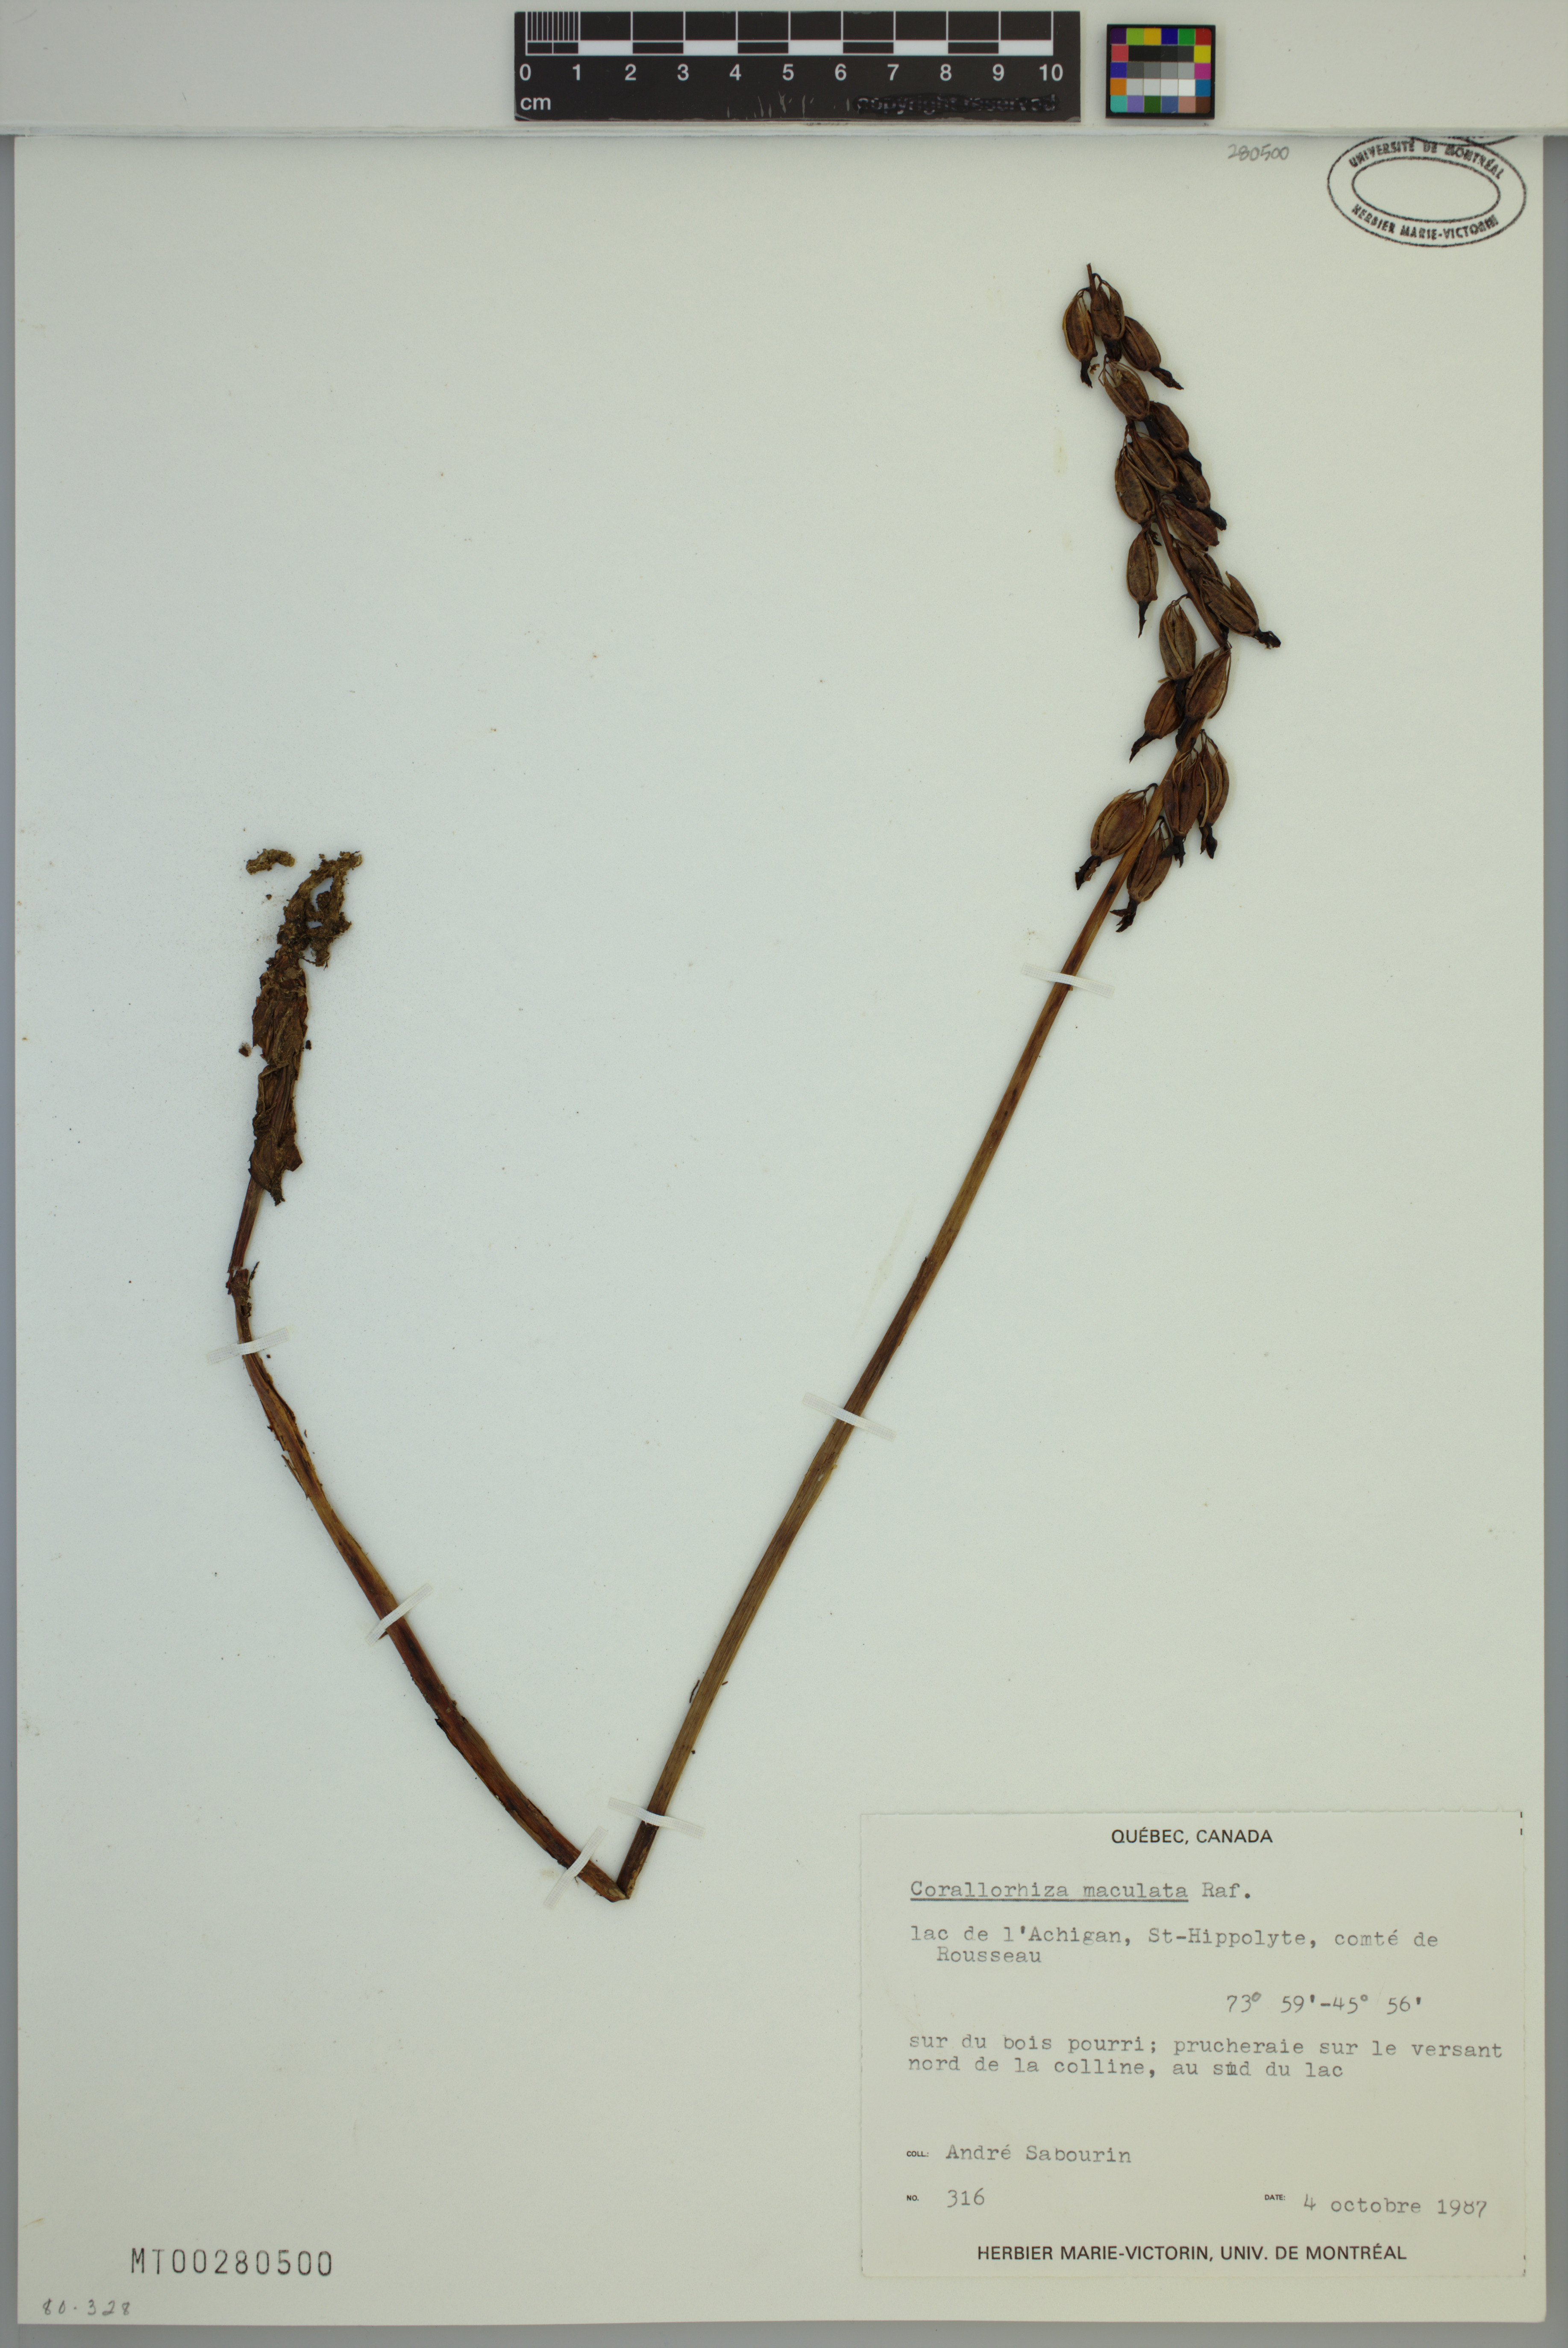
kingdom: Plantae
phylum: Tracheophyta
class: Liliopsida
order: Asparagales
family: Orchidaceae
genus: Corallorhiza
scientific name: Corallorhiza maculata
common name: Spotted coralroot
